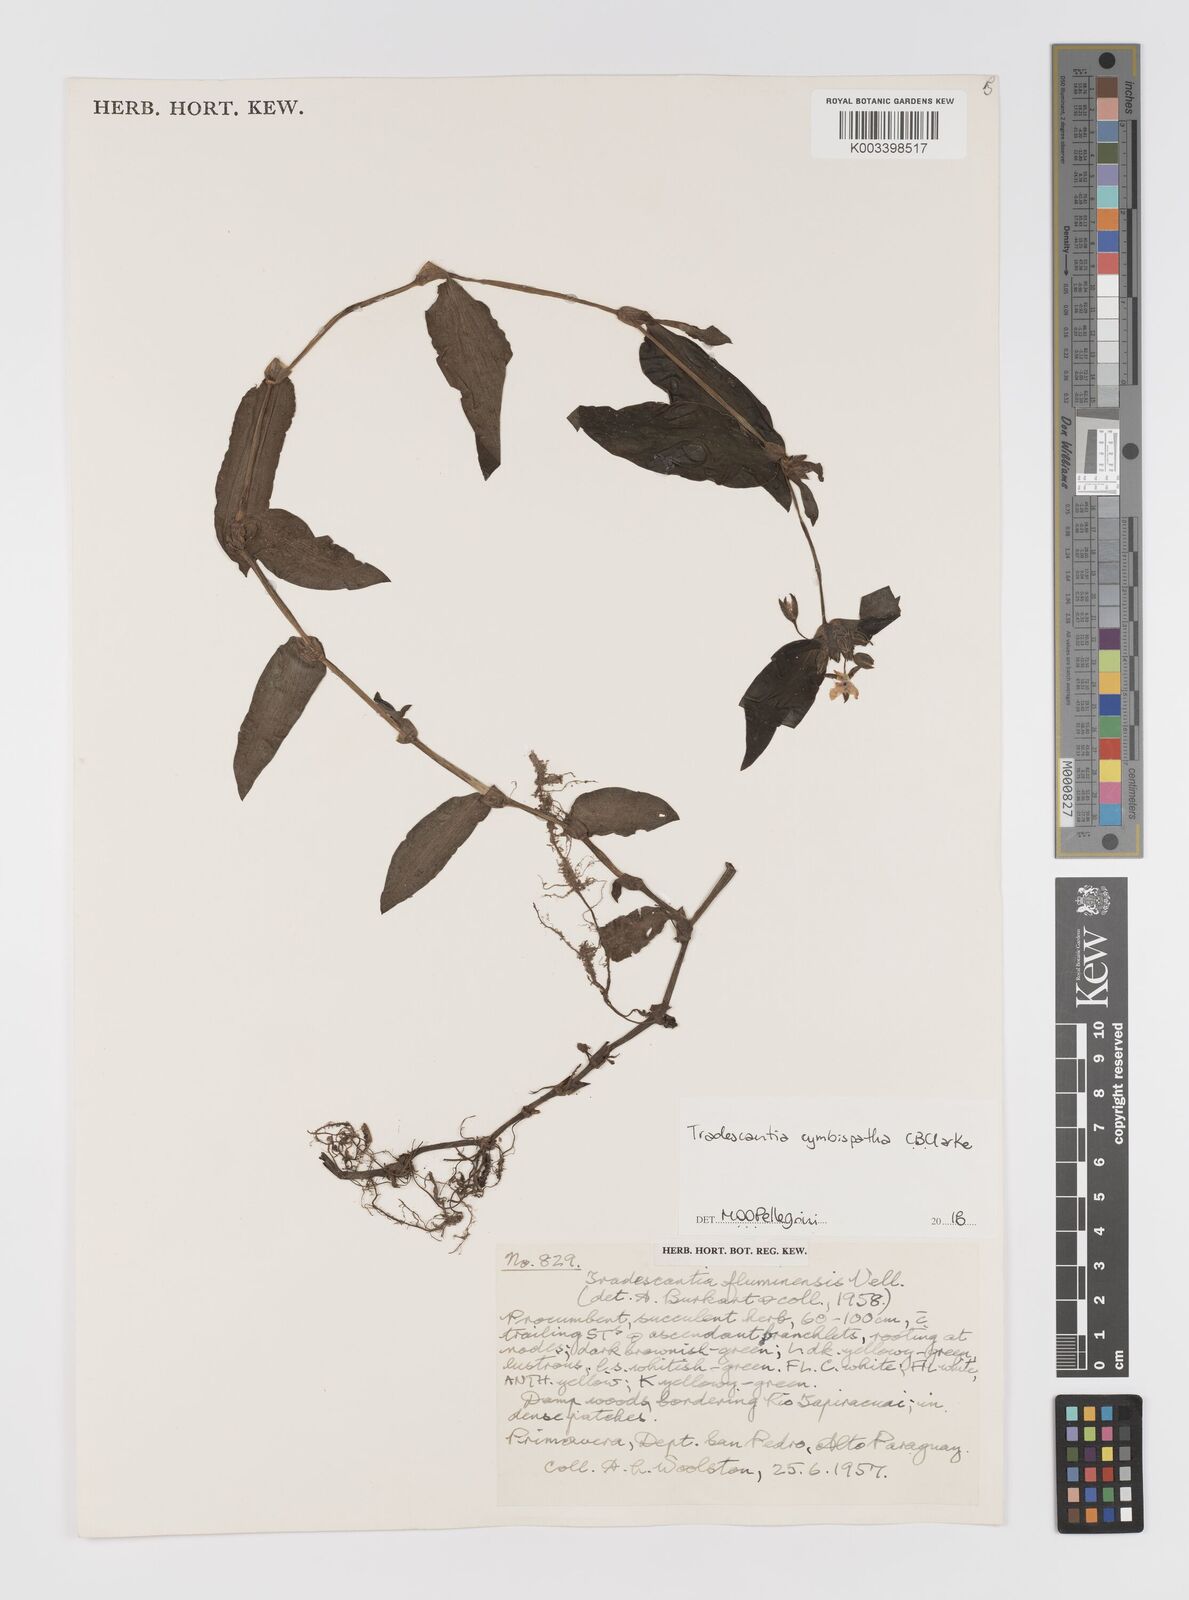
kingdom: Plantae
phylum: Tracheophyta
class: Liliopsida
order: Commelinales
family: Commelinaceae
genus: Tradescantia
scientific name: Tradescantia cymbispatha
